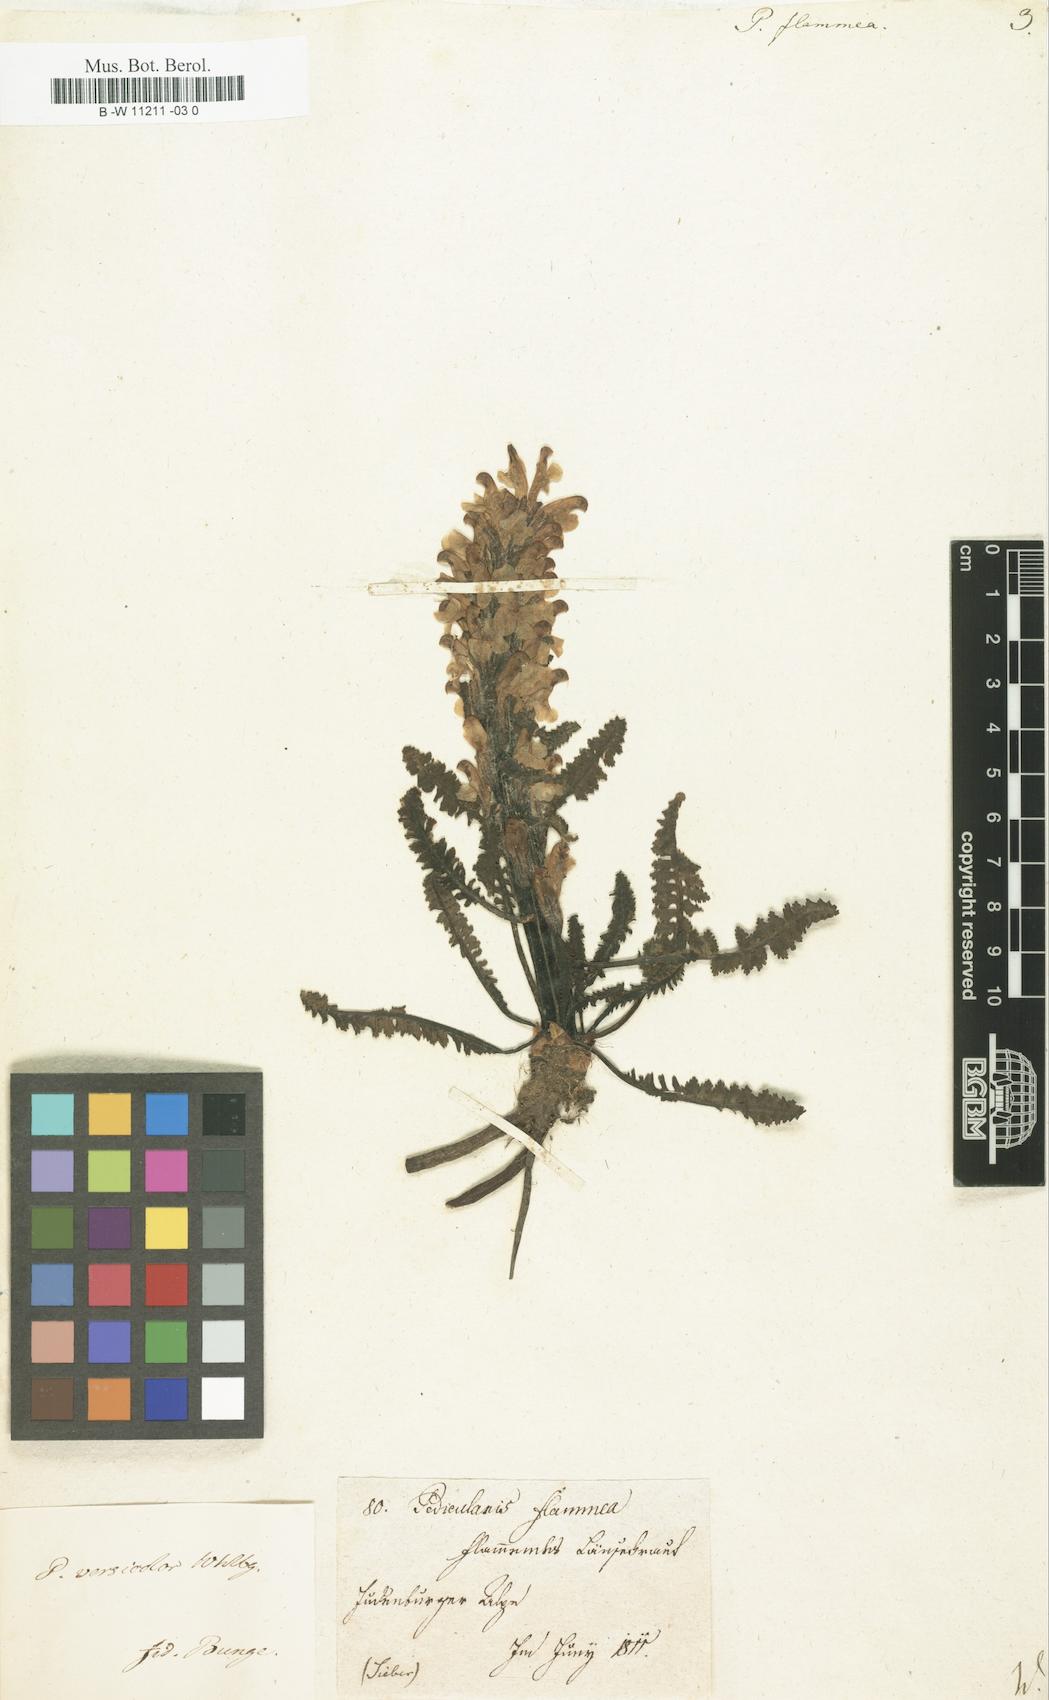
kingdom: Plantae
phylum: Tracheophyta
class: Magnoliopsida
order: Lamiales
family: Orobanchaceae
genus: Pedicularis
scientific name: Pedicularis flammea
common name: Flame-coloured lousewort
